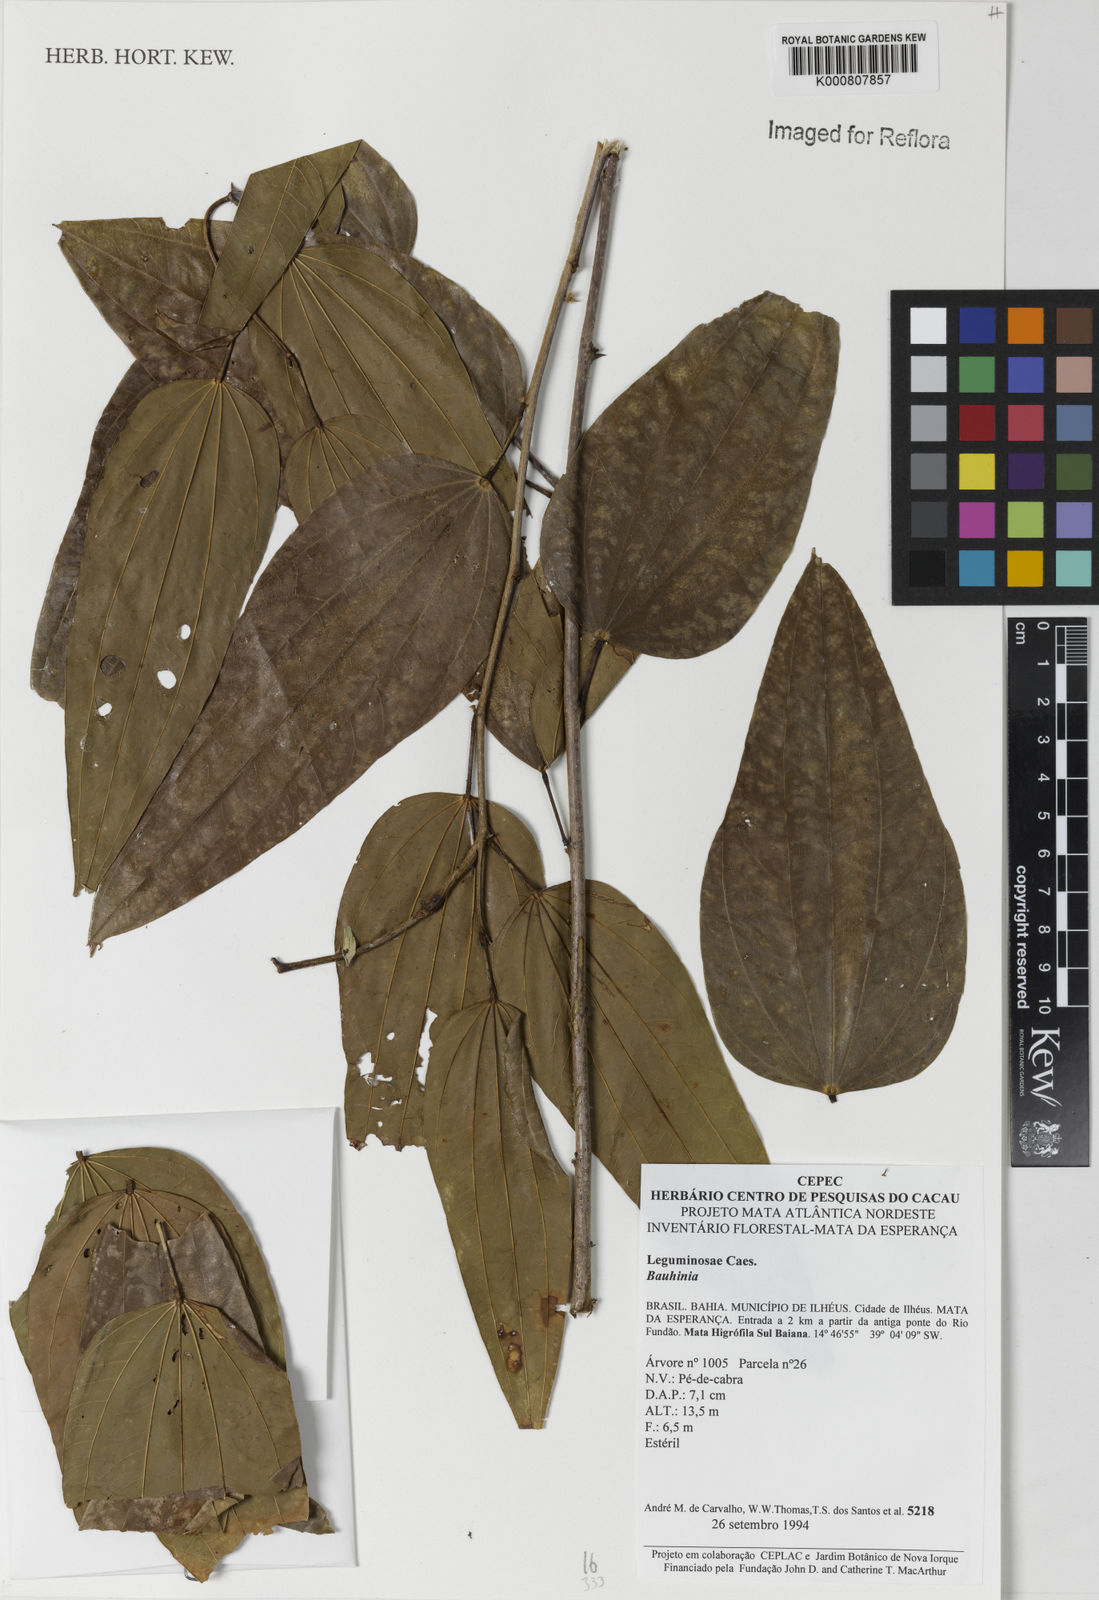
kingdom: Plantae
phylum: Tracheophyta
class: Magnoliopsida
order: Fabales
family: Fabaceae
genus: Bauhinia
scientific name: Bauhinia
